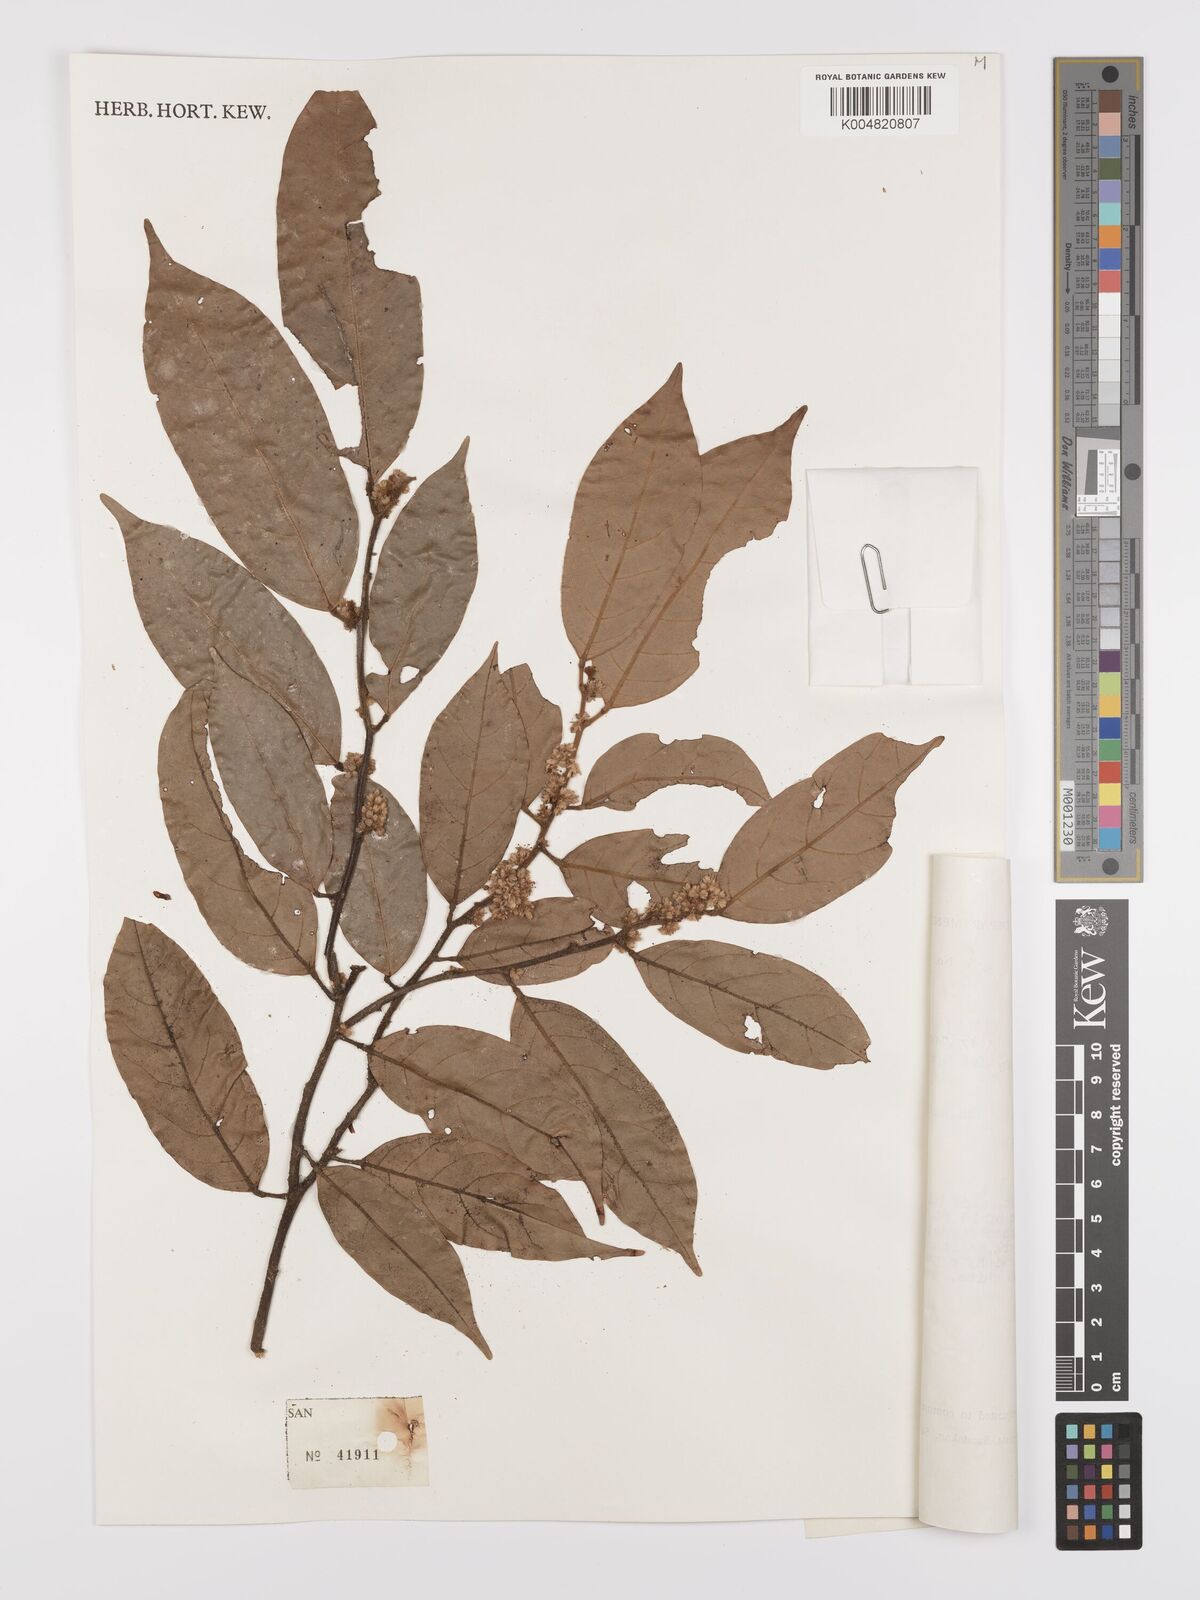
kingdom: Plantae
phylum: Tracheophyta
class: Magnoliopsida
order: Oxalidales
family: Connaraceae
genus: Ellipanthus
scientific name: Ellipanthus
